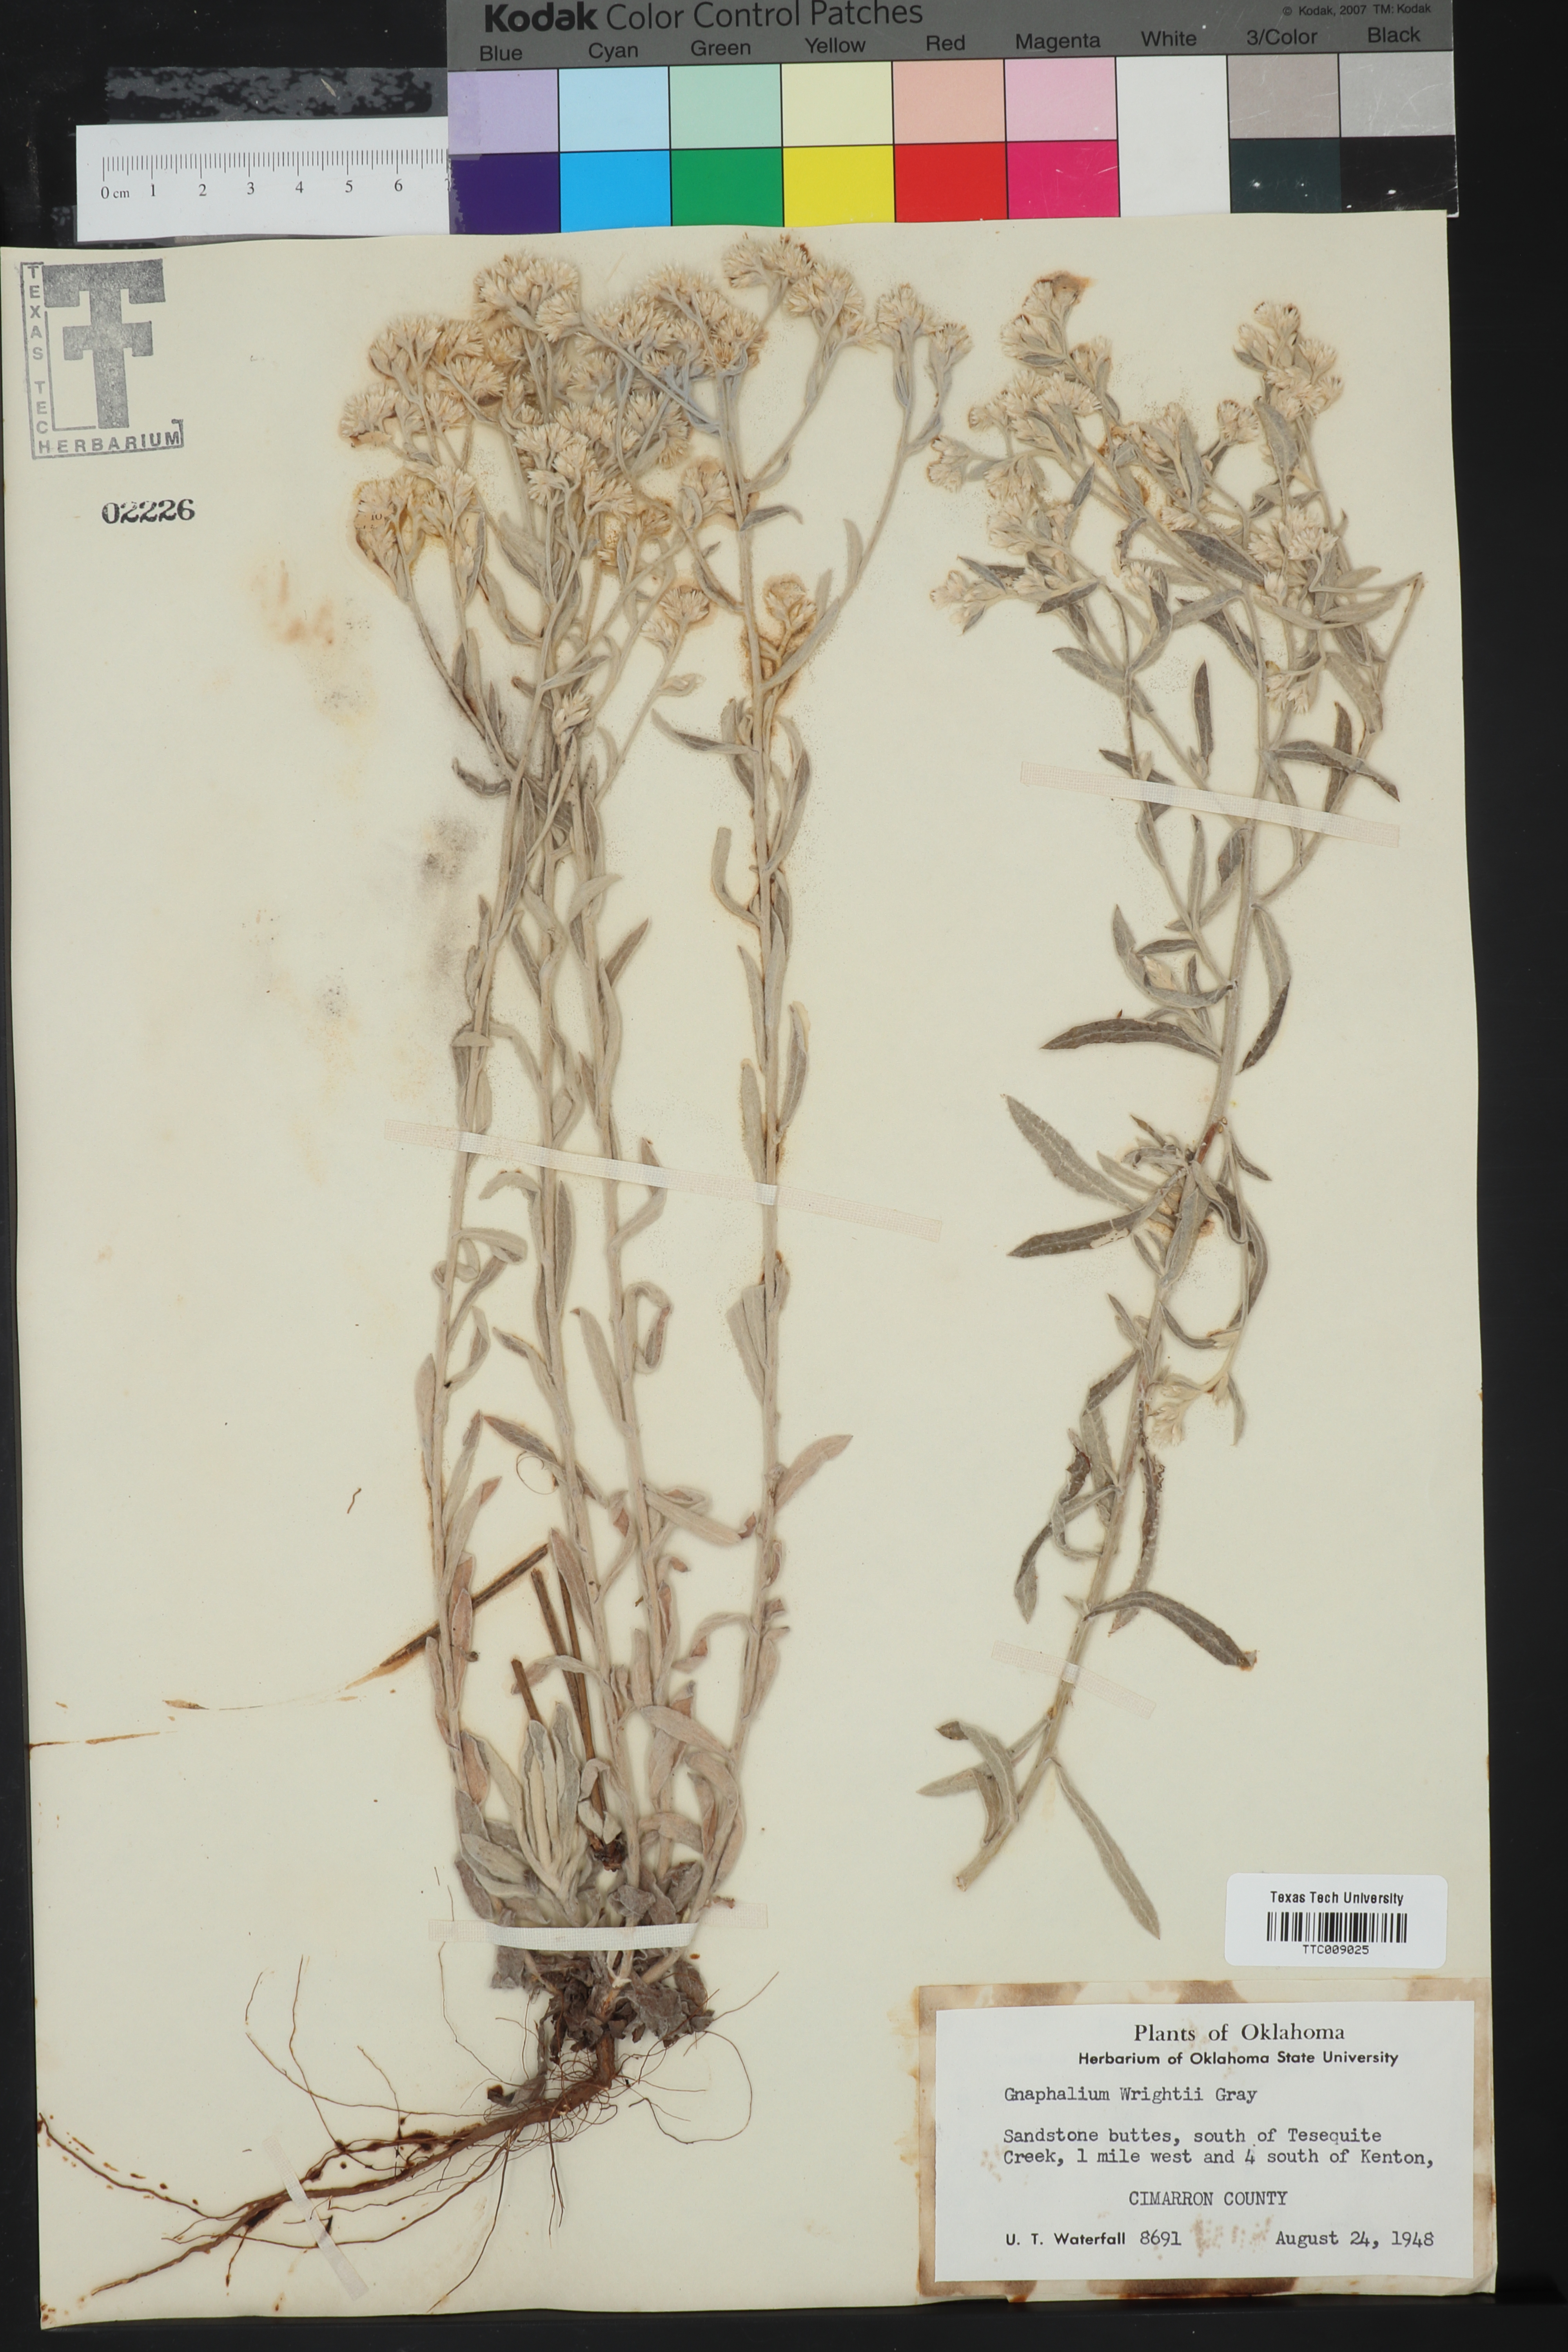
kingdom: Plantae
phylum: Tracheophyta
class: Magnoliopsida
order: Asterales
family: Asteraceae
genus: Pseudognaphalium
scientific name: Pseudognaphalium canescens
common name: Wright's rabbit-tobacco
